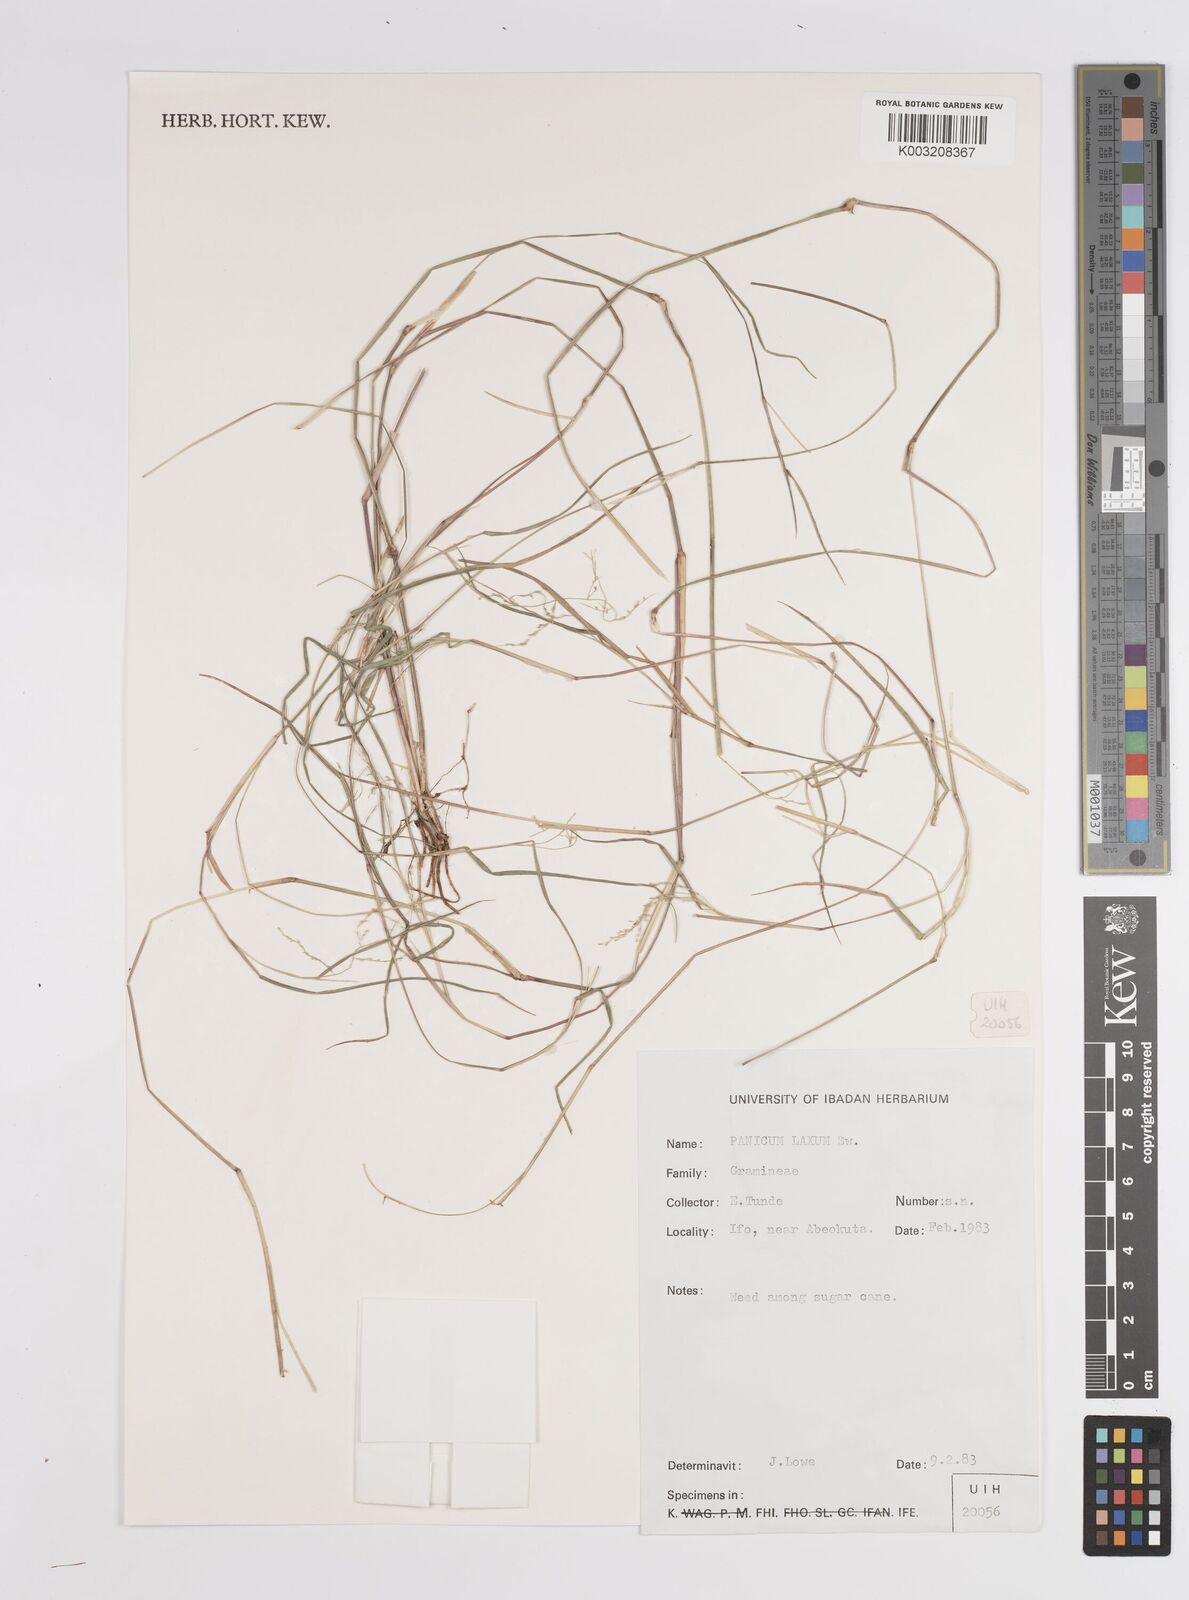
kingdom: Plantae
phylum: Tracheophyta
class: Liliopsida
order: Poales
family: Poaceae
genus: Steinchisma
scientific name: Steinchisma laxum
